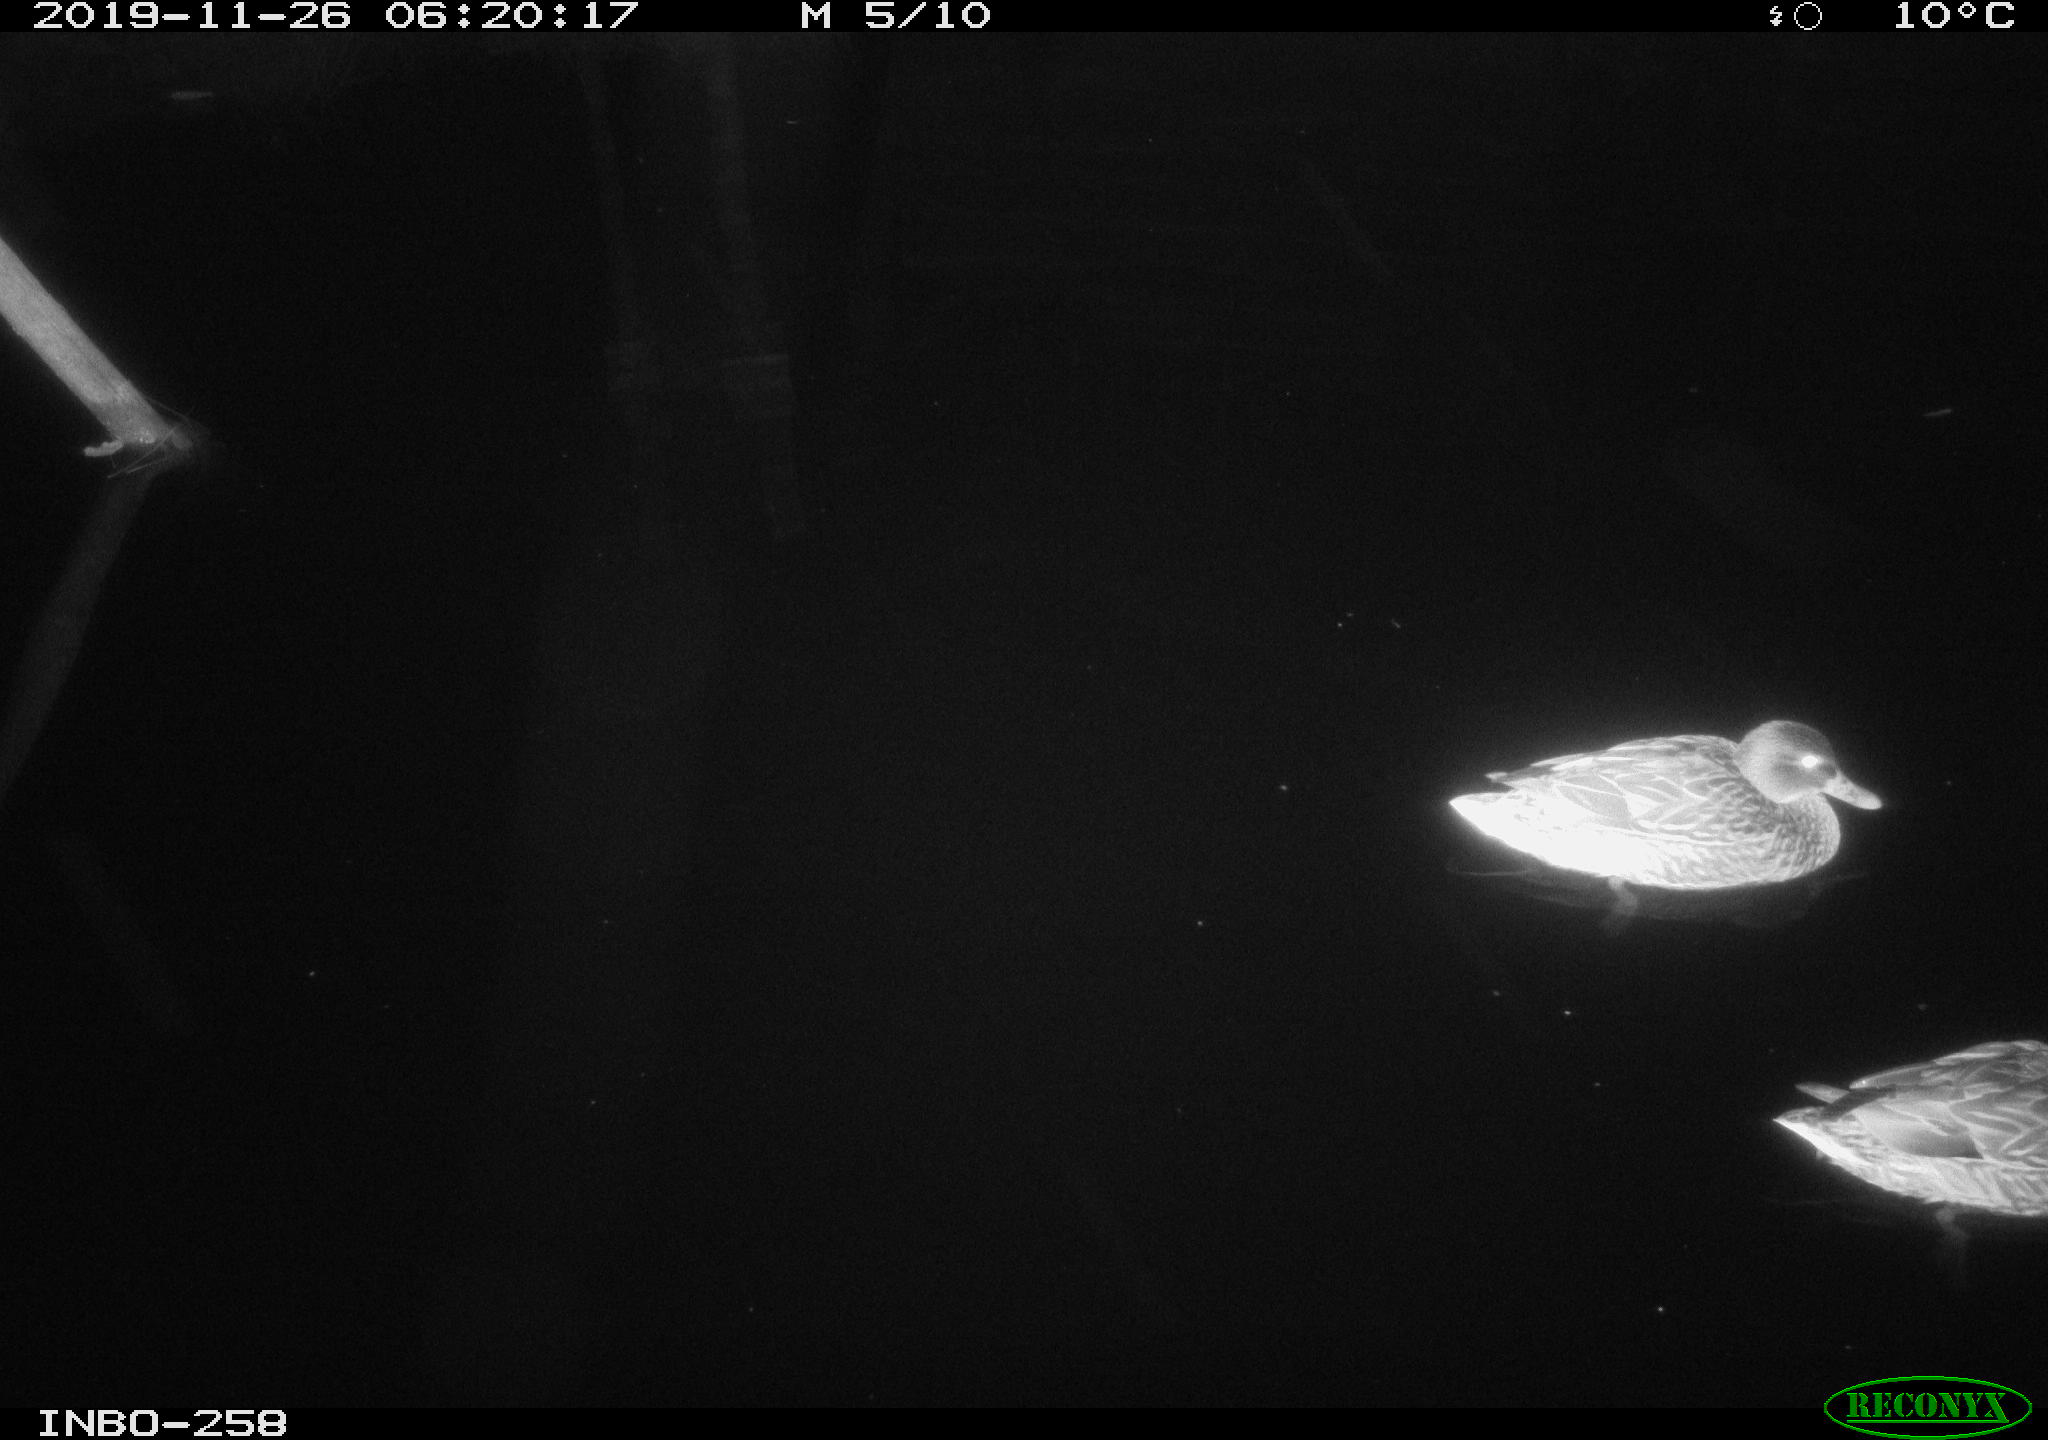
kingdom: Animalia
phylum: Chordata
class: Aves
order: Anseriformes
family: Anatidae
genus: Anas
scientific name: Anas platyrhynchos
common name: Mallard
